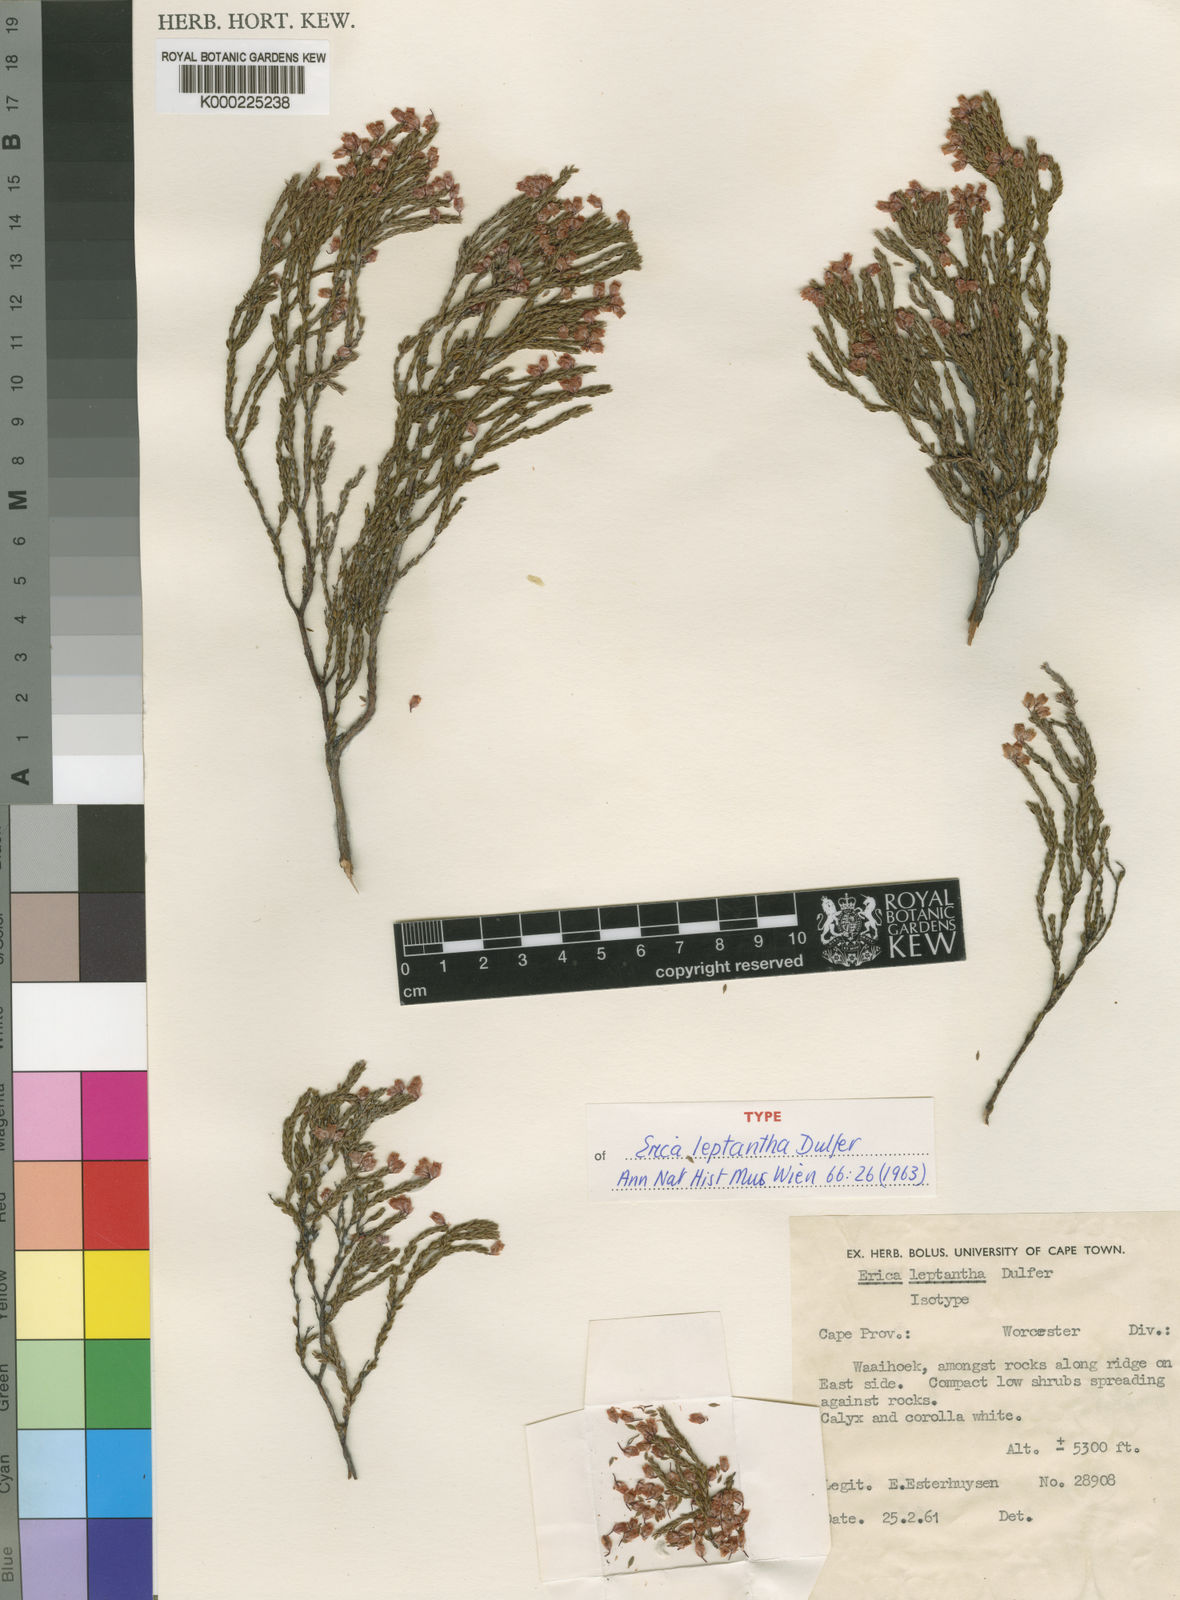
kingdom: Plantae
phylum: Tracheophyta
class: Magnoliopsida
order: Ericales
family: Ericaceae
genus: Erica
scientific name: Erica leptantha
